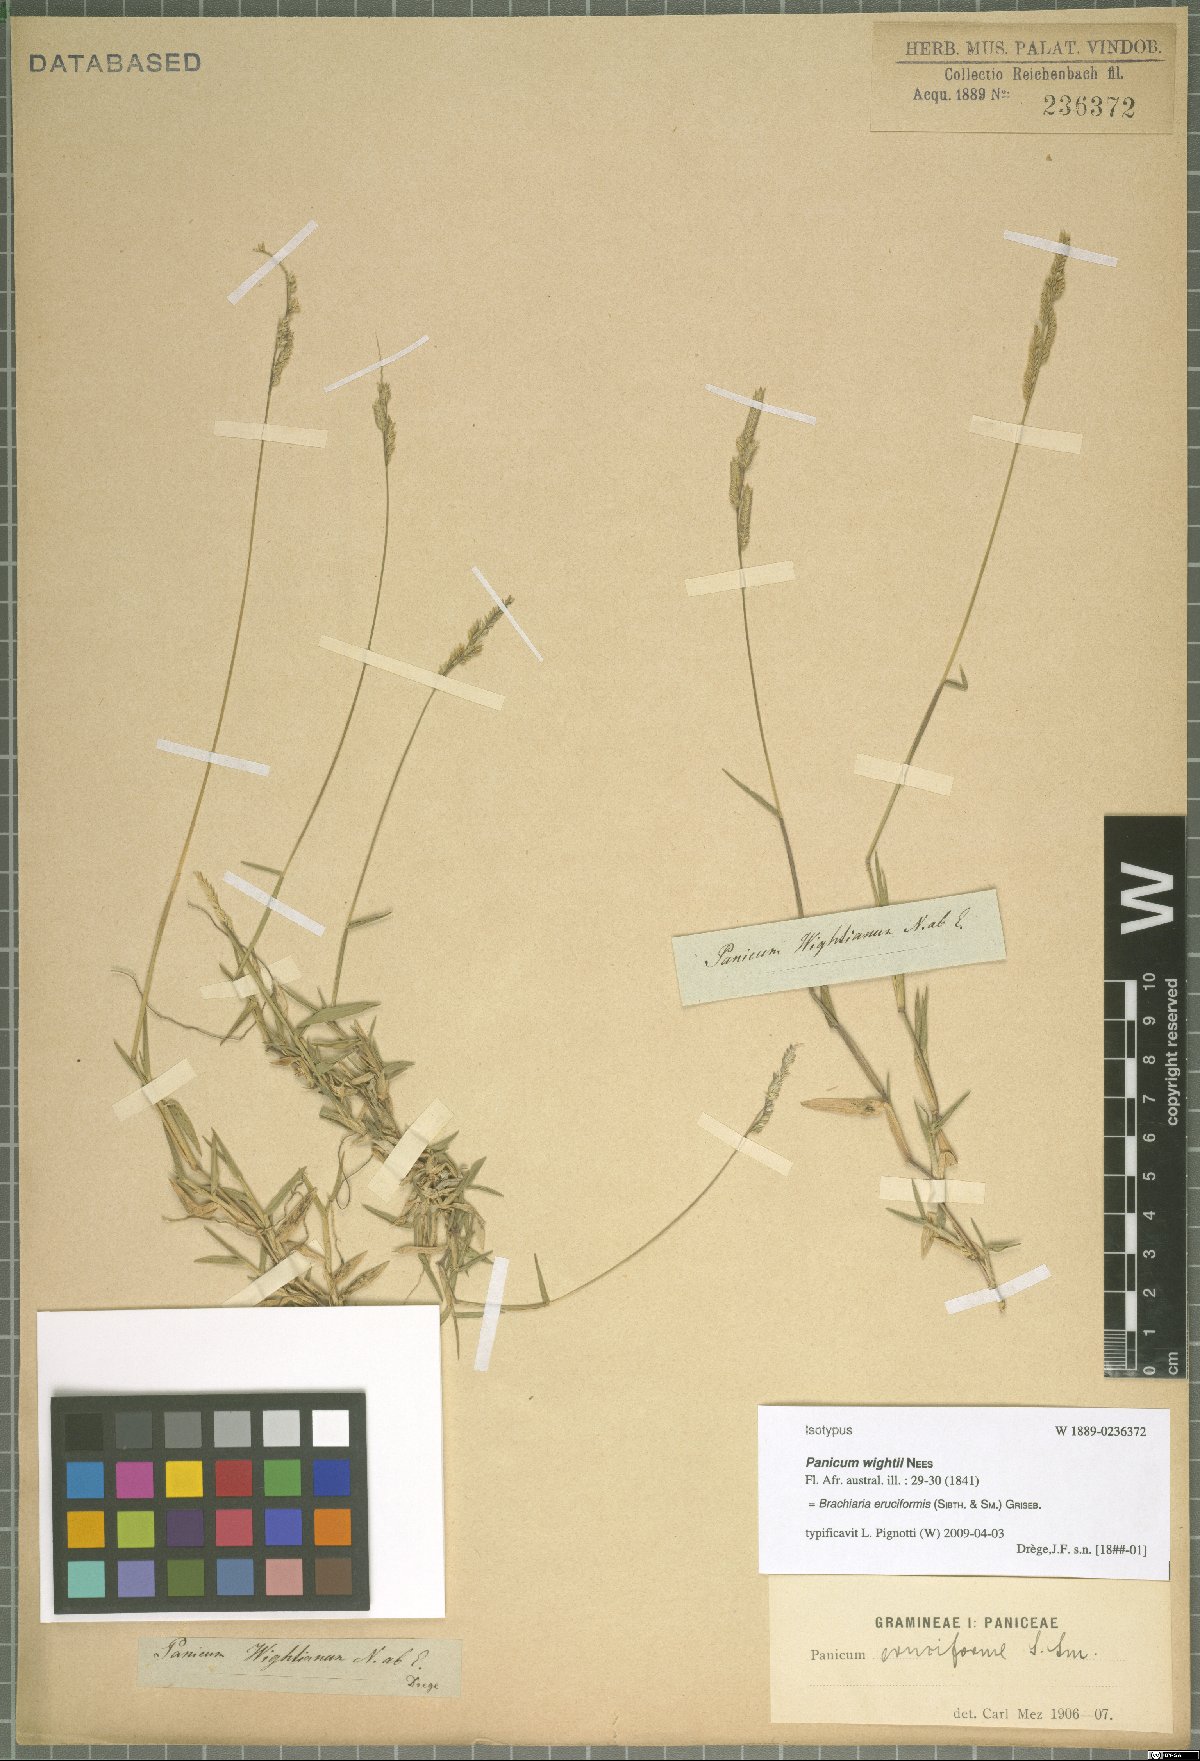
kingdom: Plantae
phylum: Tracheophyta
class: Liliopsida
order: Poales
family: Poaceae
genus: Moorochloa
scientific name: Moorochloa eruciformis
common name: Sweet signalgrass
